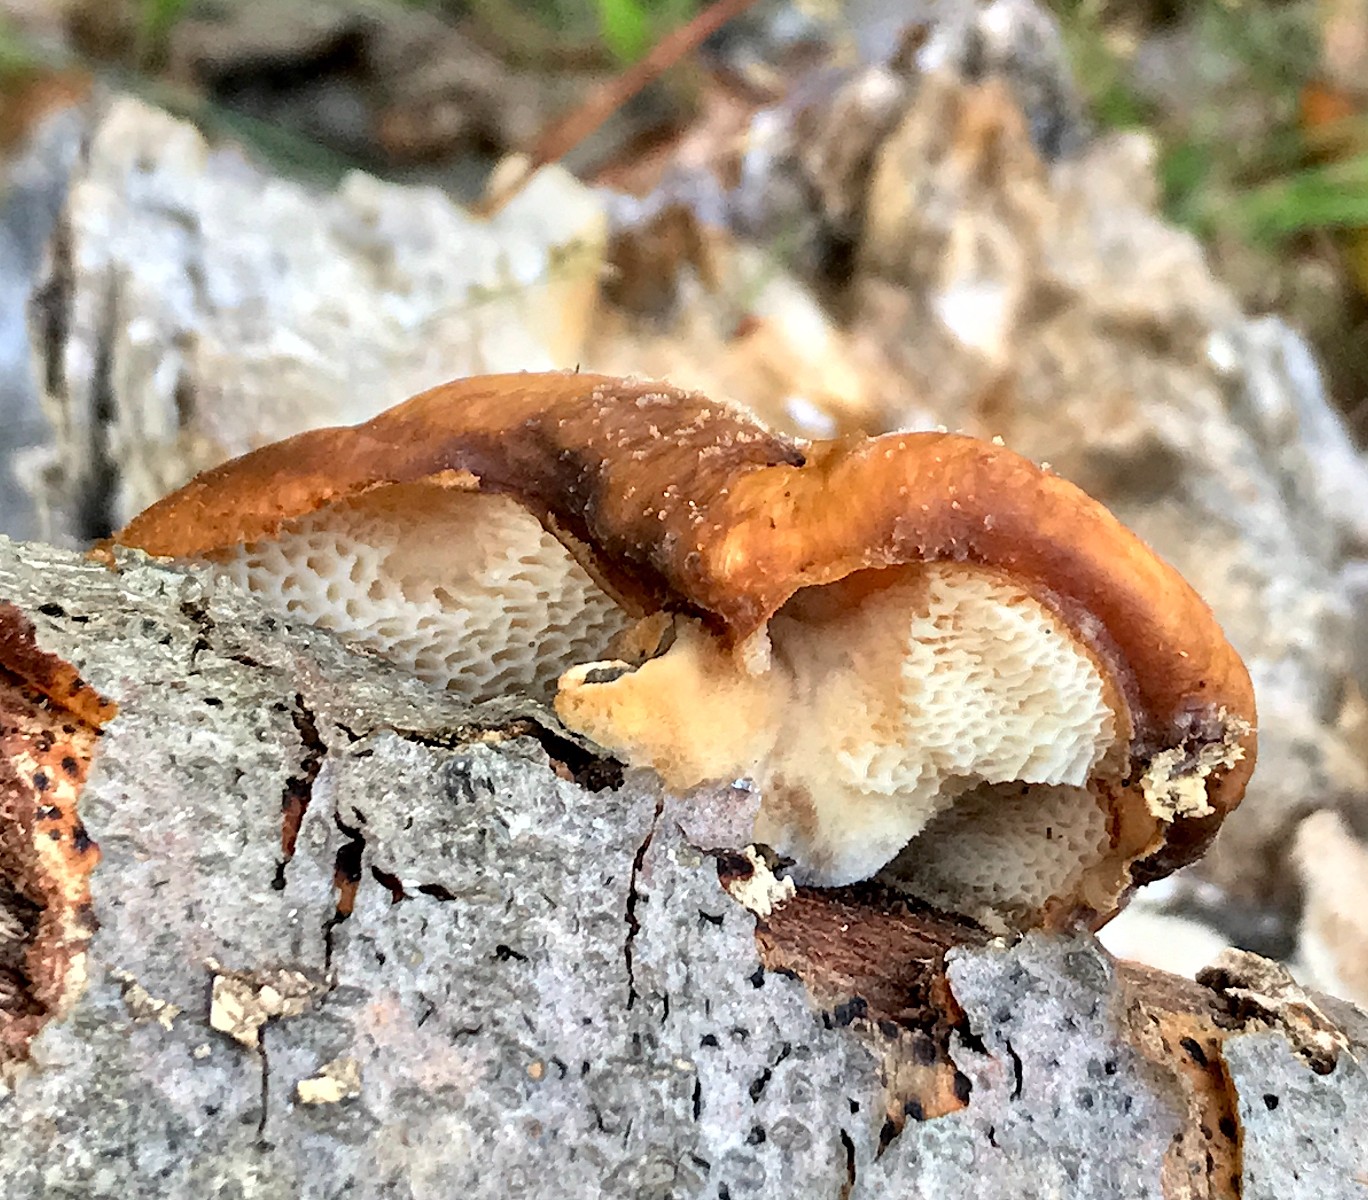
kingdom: Fungi
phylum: Basidiomycota
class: Agaricomycetes
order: Polyporales
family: Polyporaceae
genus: Polyporus
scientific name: Polyporus tuberaster
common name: knoldet stilkporesvamp
